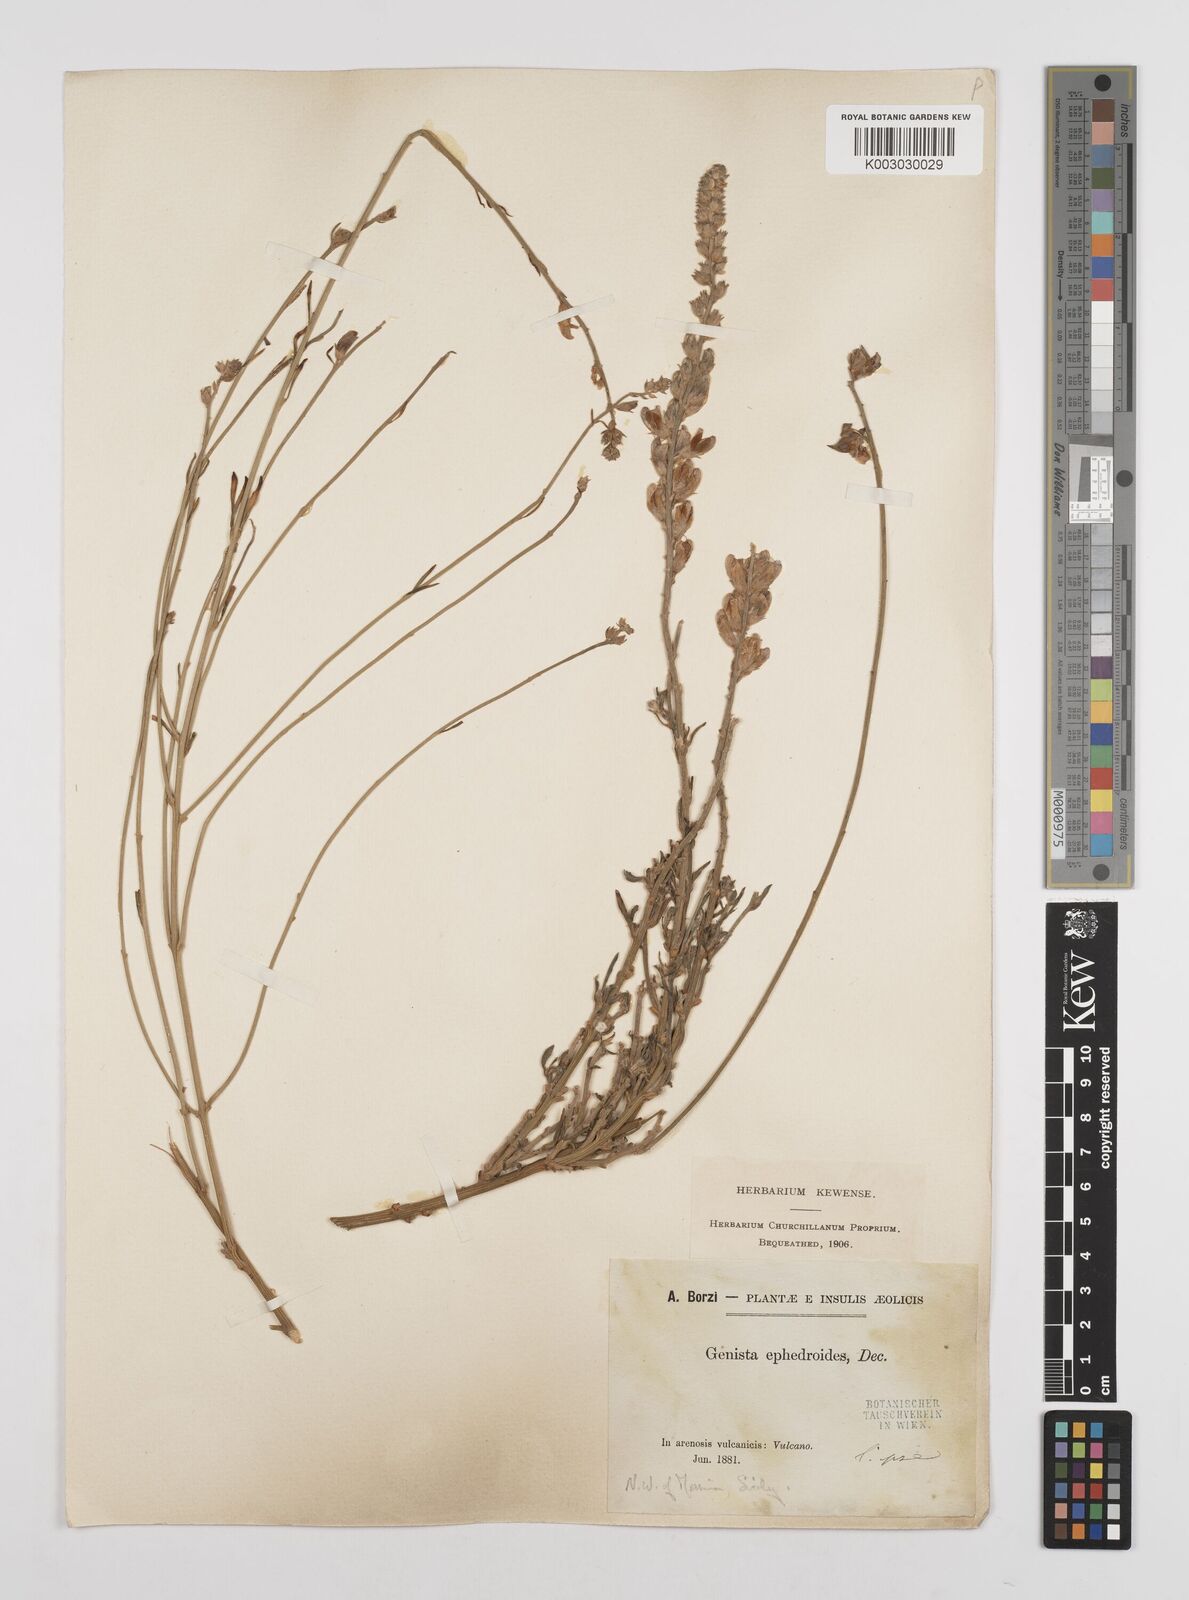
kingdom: Plantae
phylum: Tracheophyta
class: Magnoliopsida
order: Fabales
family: Fabaceae
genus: Genista
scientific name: Genista ephedroides
